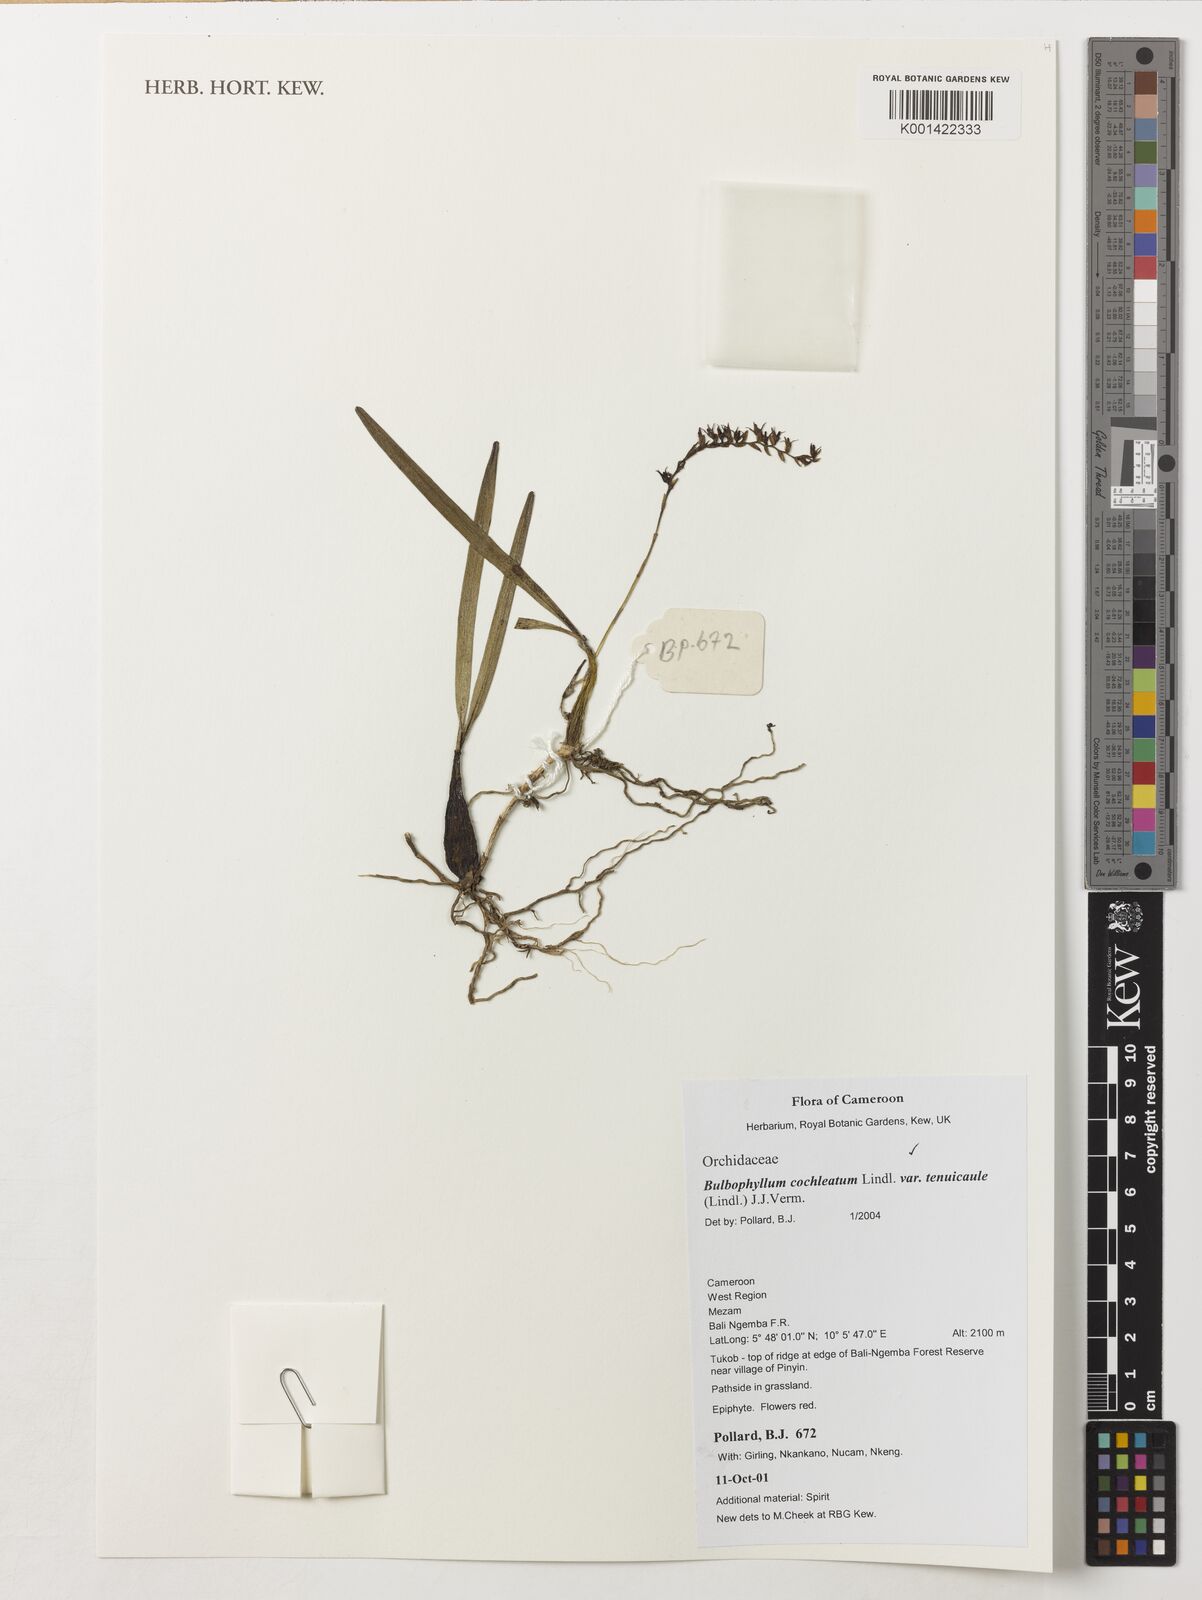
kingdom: Plantae
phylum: Tracheophyta
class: Liliopsida
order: Asparagales
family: Orchidaceae
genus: Bulbophyllum
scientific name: Bulbophyllum cochleatum
